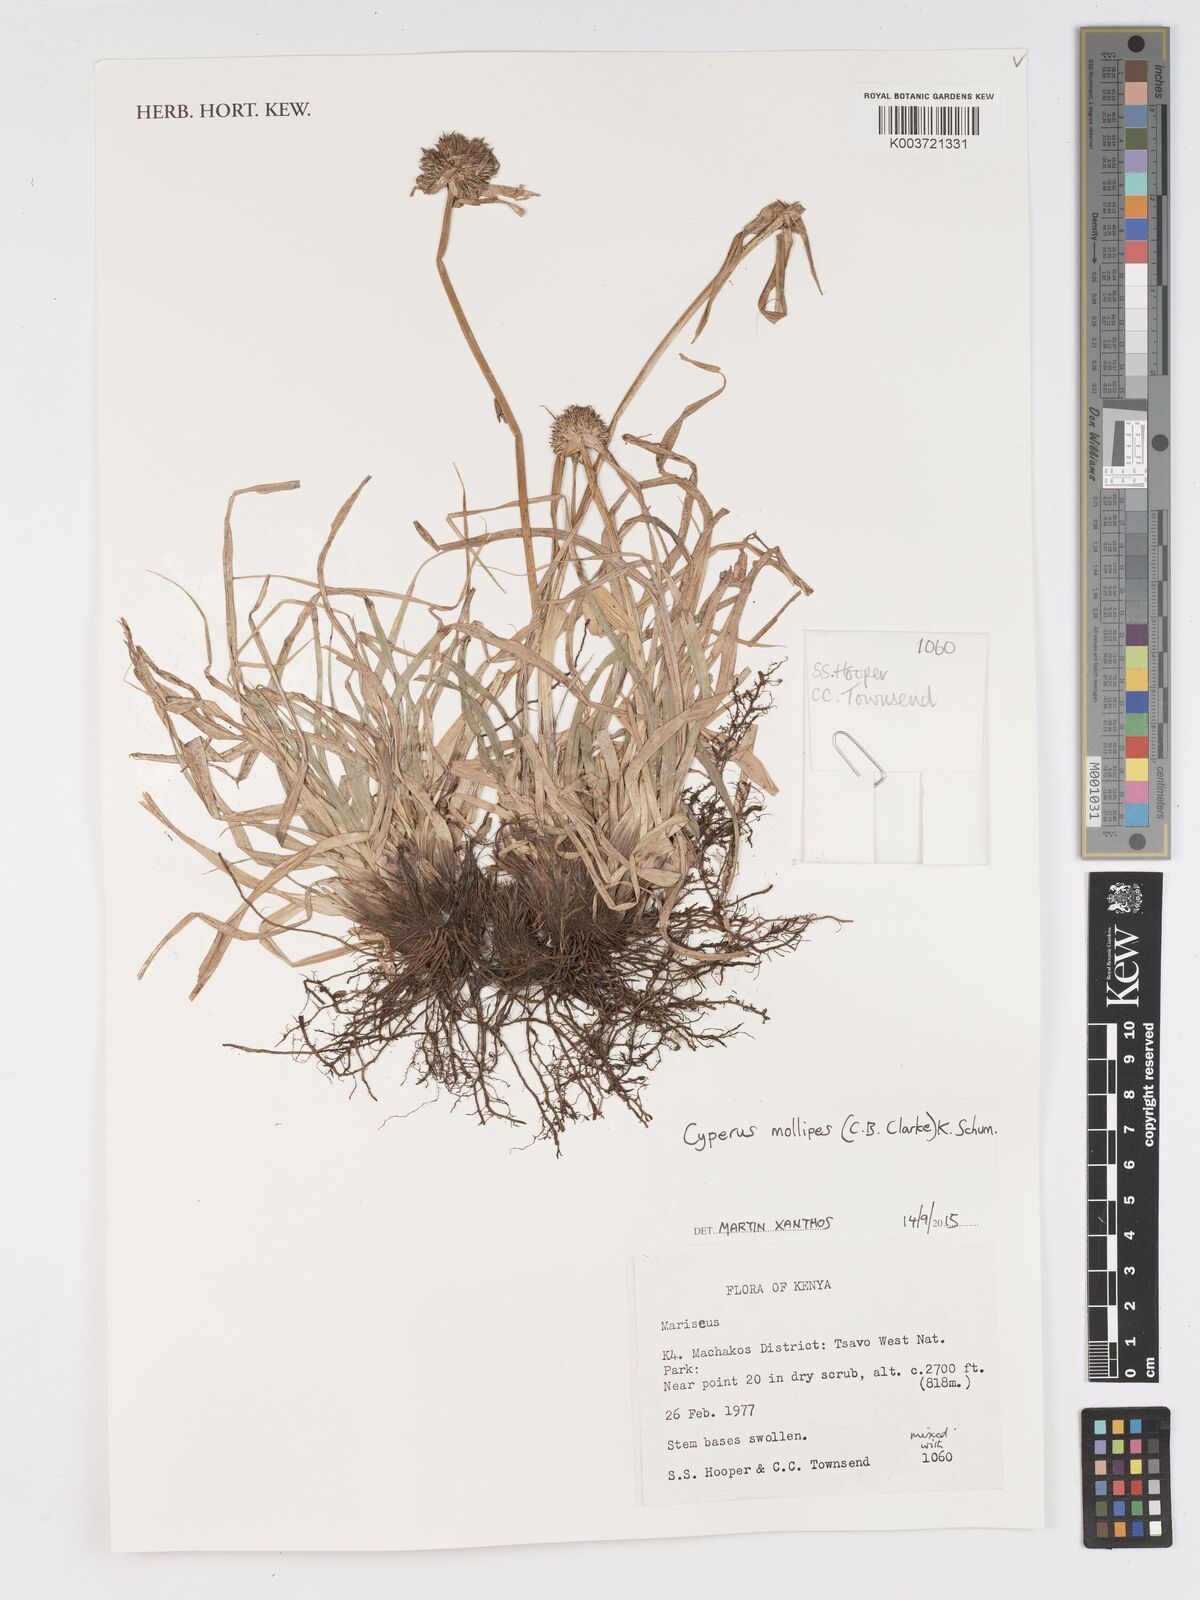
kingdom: Plantae
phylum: Tracheophyta
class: Liliopsida
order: Poales
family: Cyperaceae
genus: Cyperus
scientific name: Cyperus mollipes
